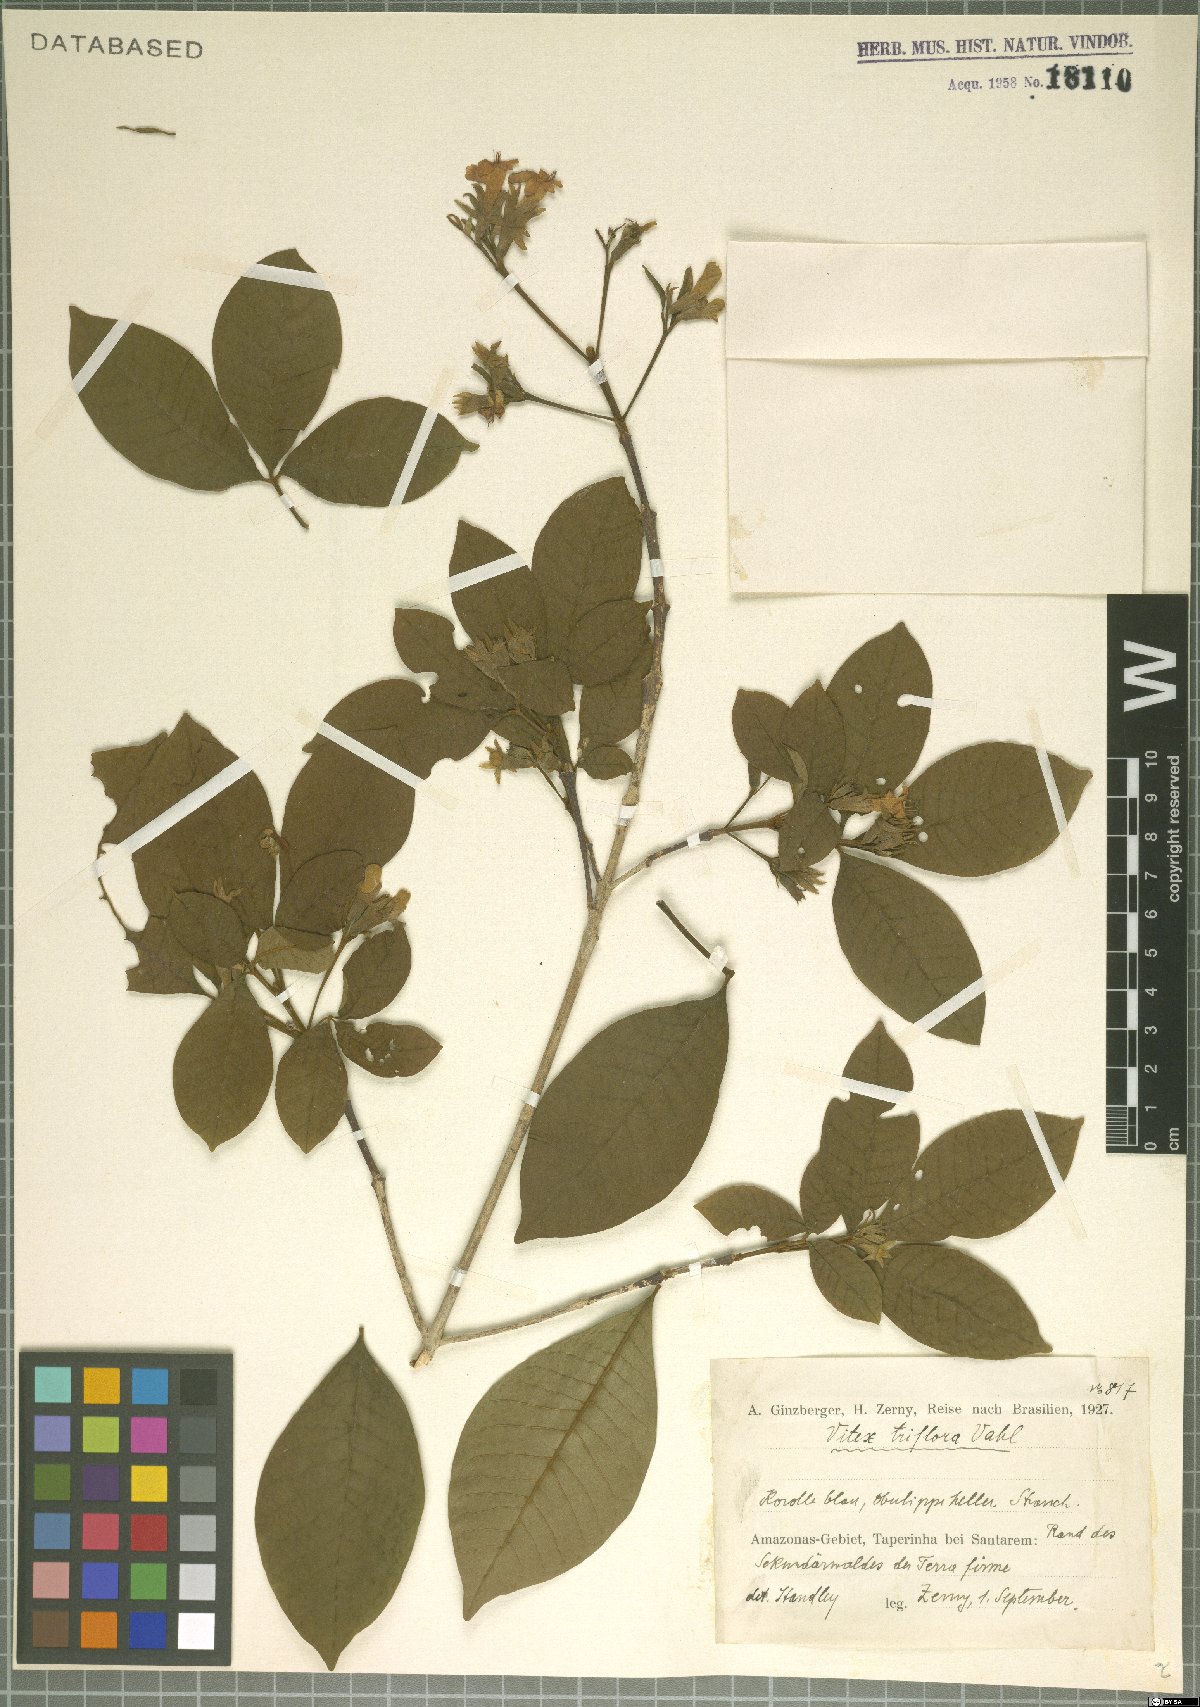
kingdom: Plantae
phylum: Tracheophyta
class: Magnoliopsida
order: Lamiales
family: Lamiaceae
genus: Vitex
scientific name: Vitex triflora
